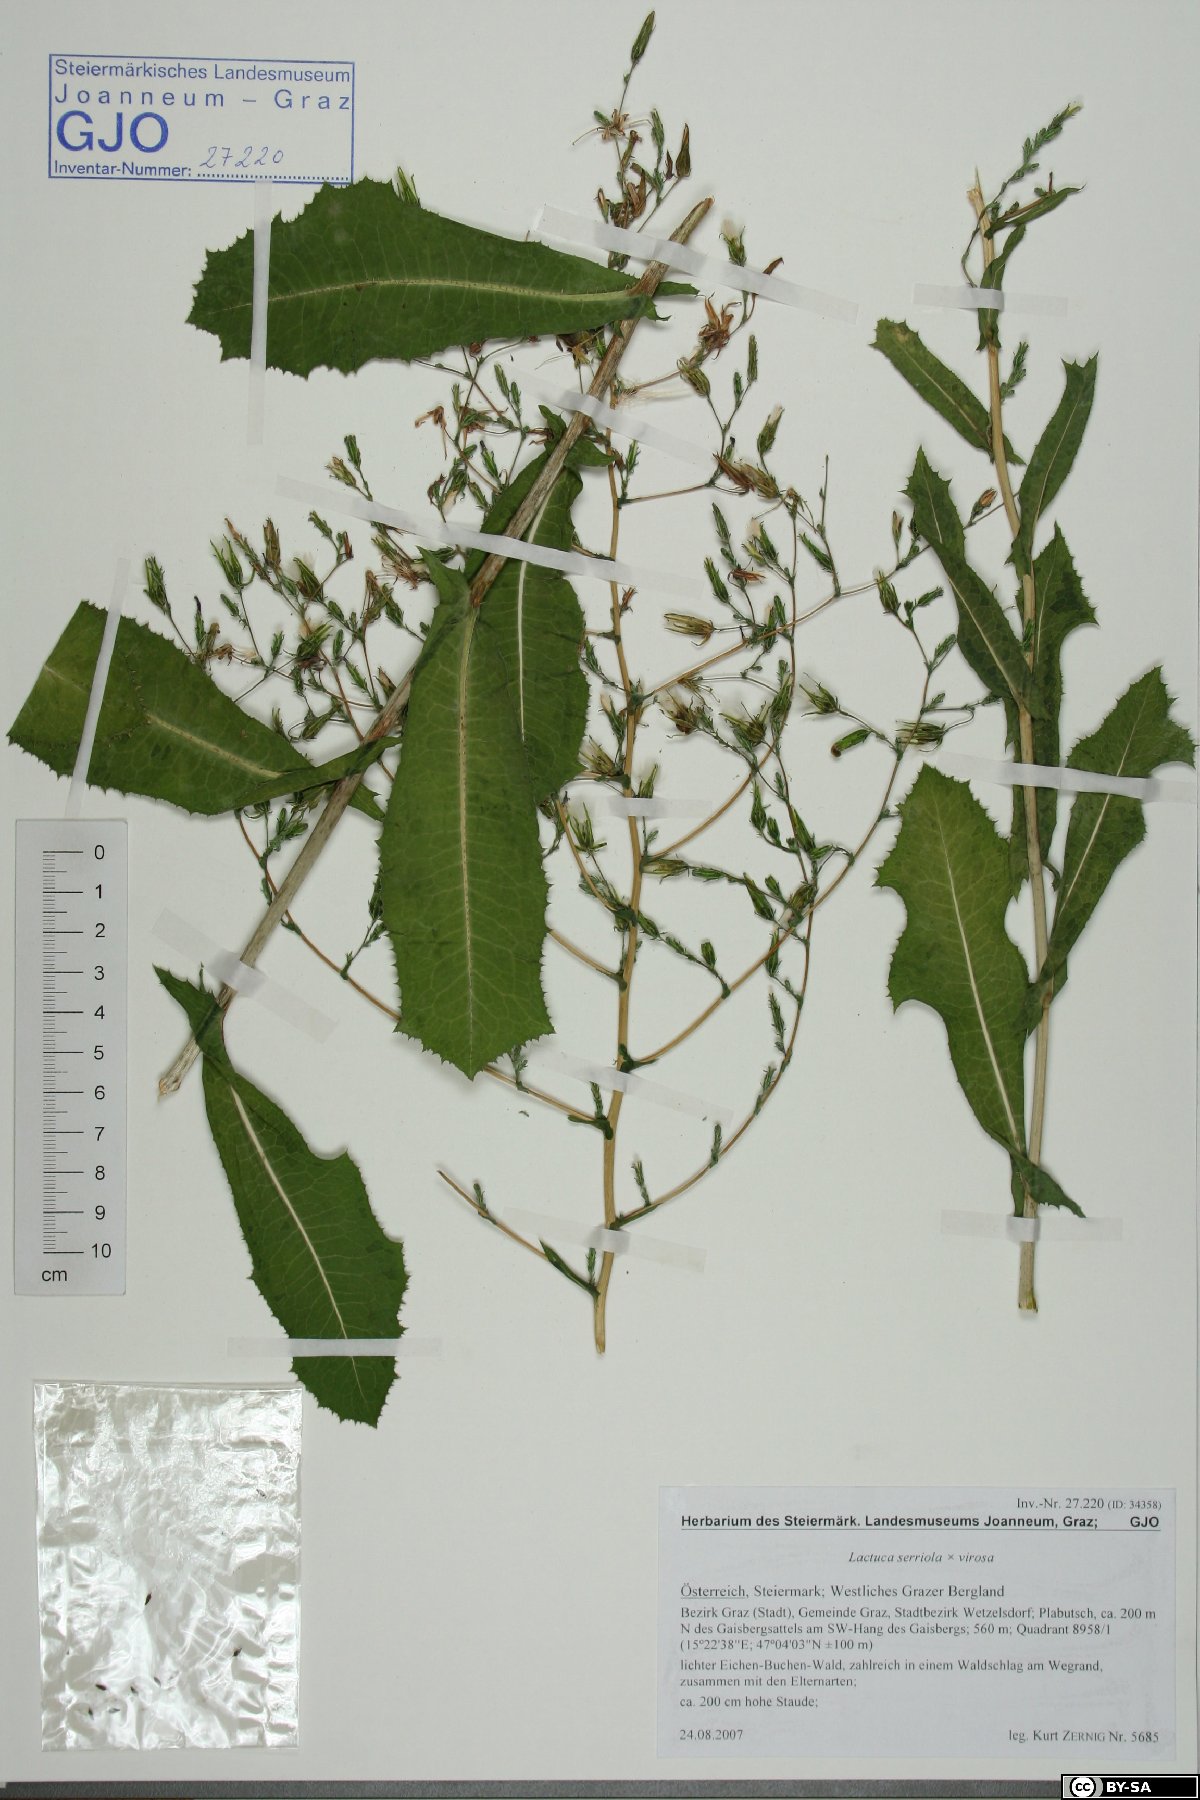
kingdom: Plantae
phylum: Tracheophyta
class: Magnoliopsida
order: Asterales
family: Asteraceae
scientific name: Asteraceae
